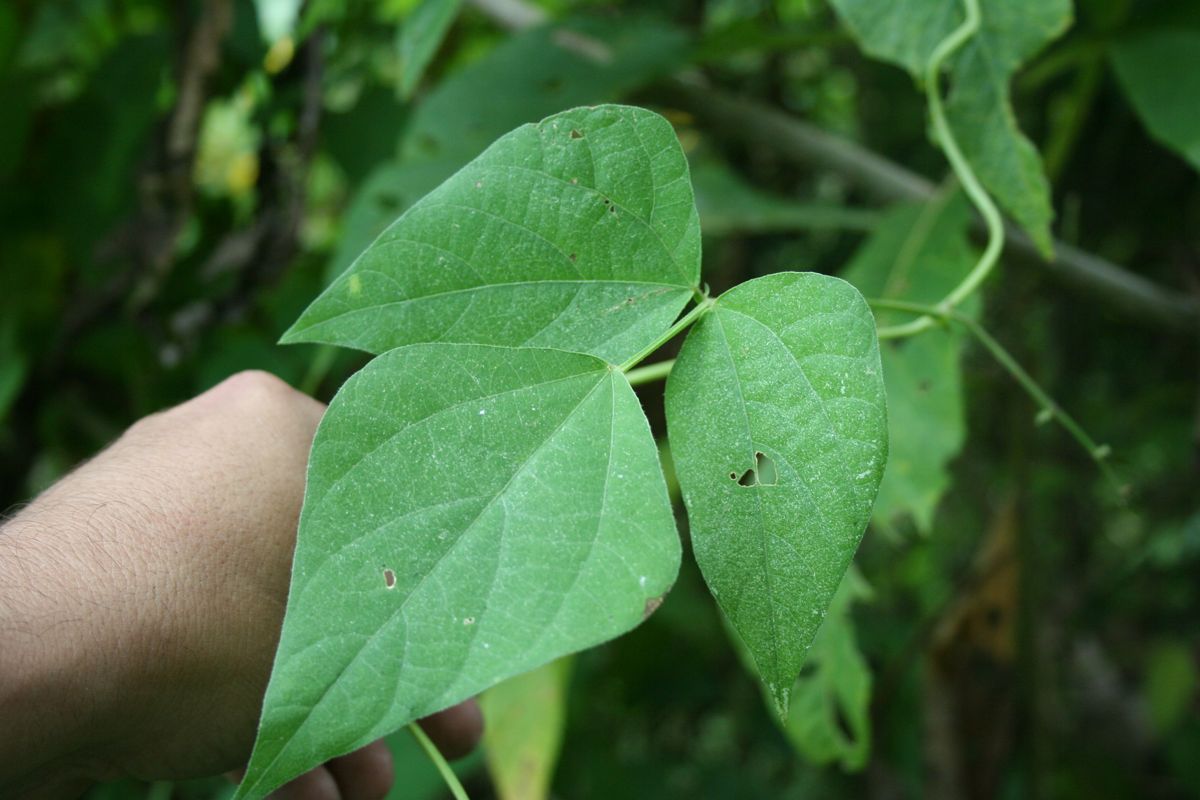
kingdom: Plantae
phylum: Tracheophyta
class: Magnoliopsida
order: Fabales
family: Fabaceae
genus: Phaseolus
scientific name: Phaseolus vulgaris
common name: Bean
